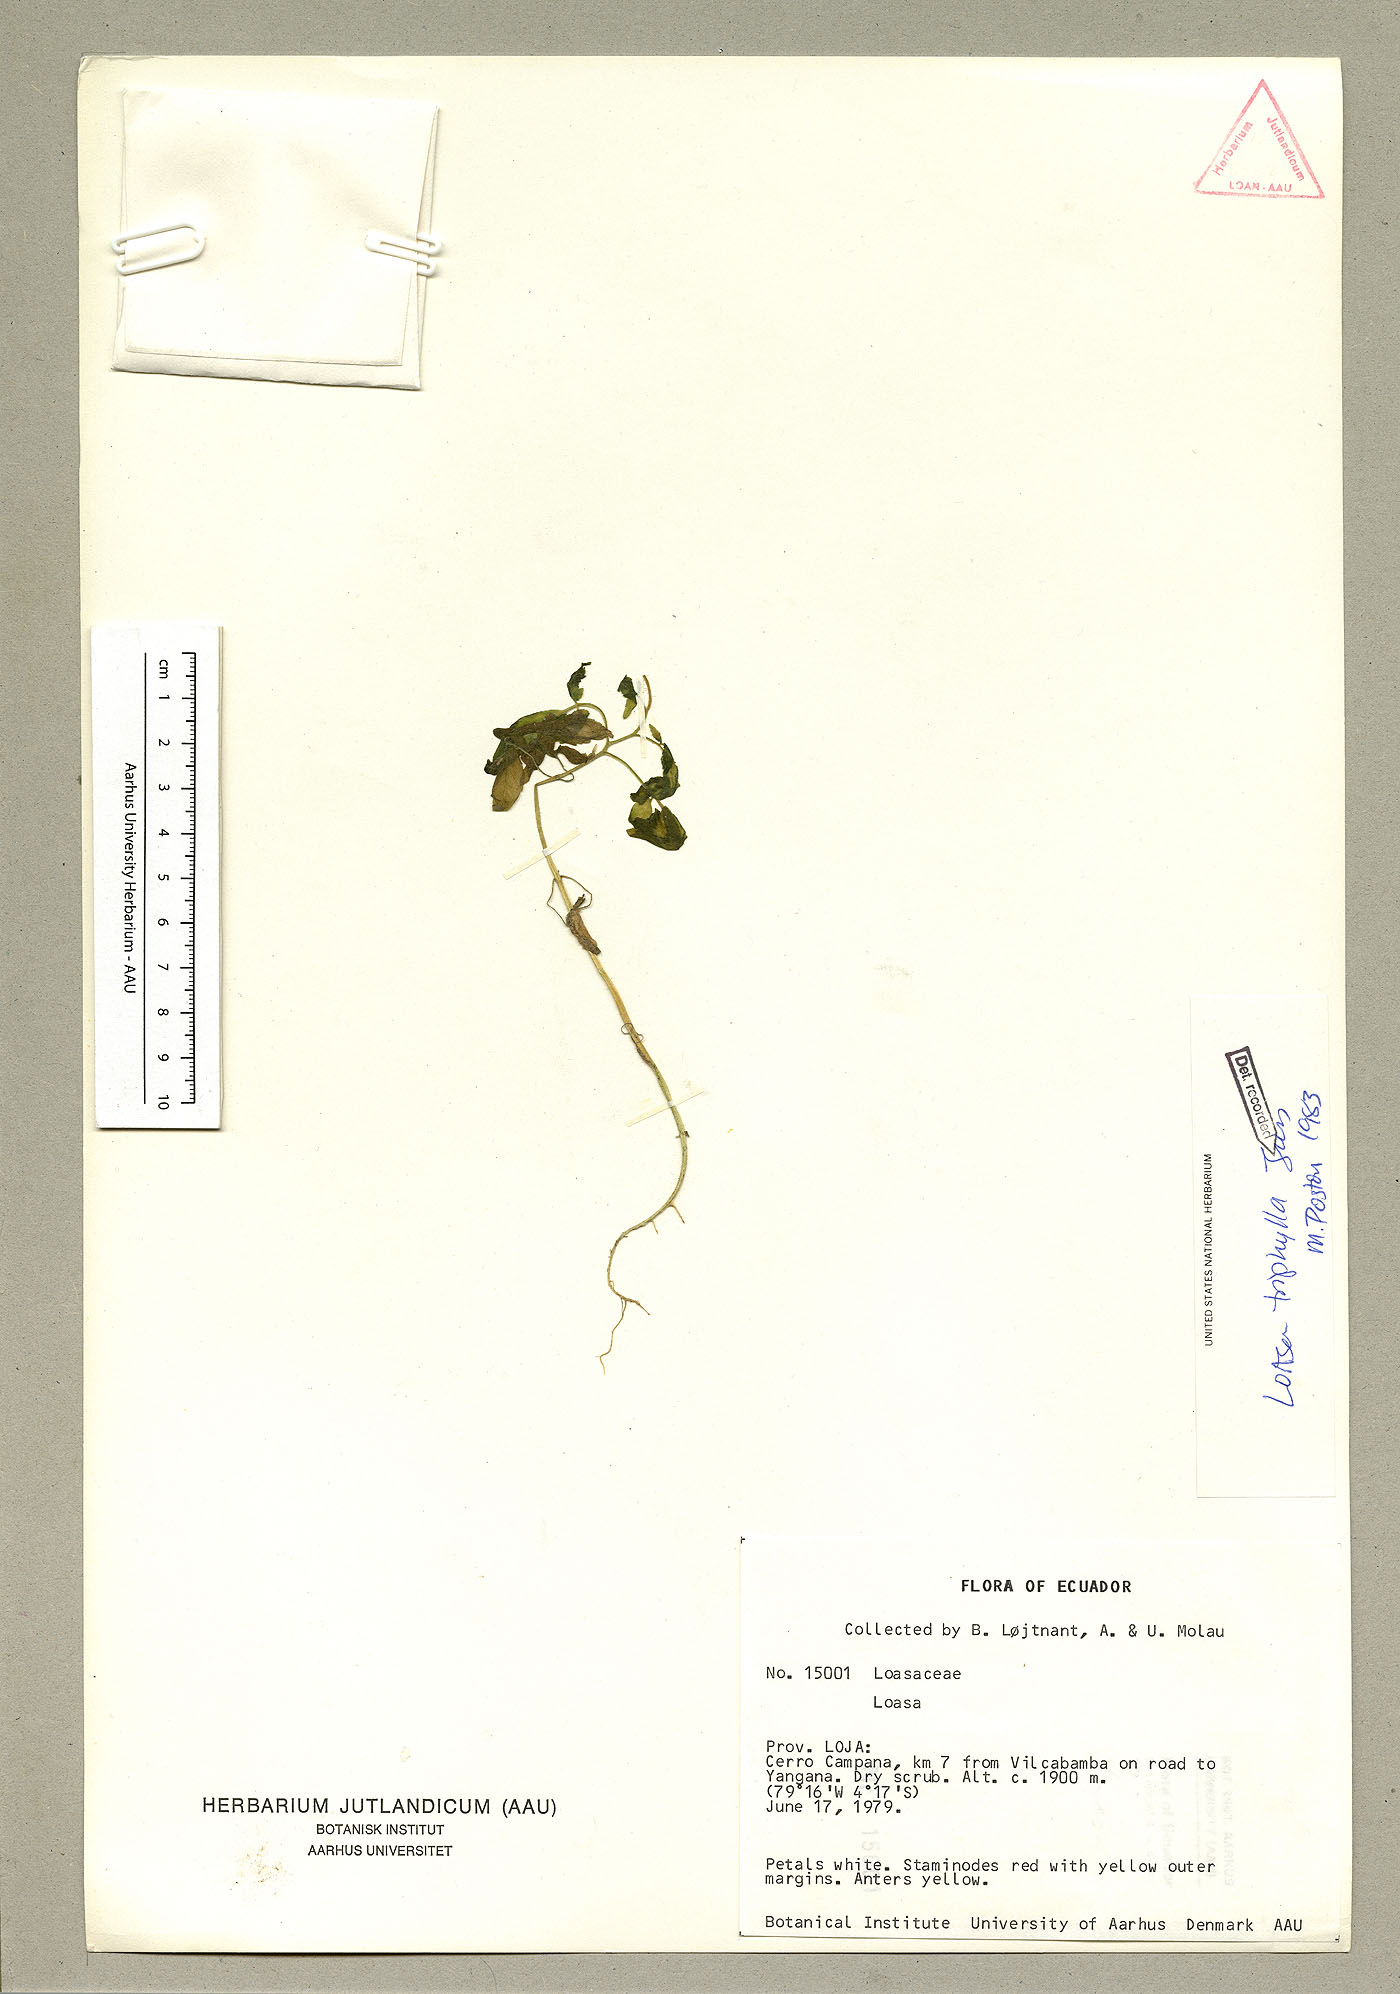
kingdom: Plantae
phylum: Tracheophyta
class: Magnoliopsida
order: Cornales
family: Loasaceae
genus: Nasa
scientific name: Nasa triphylla
